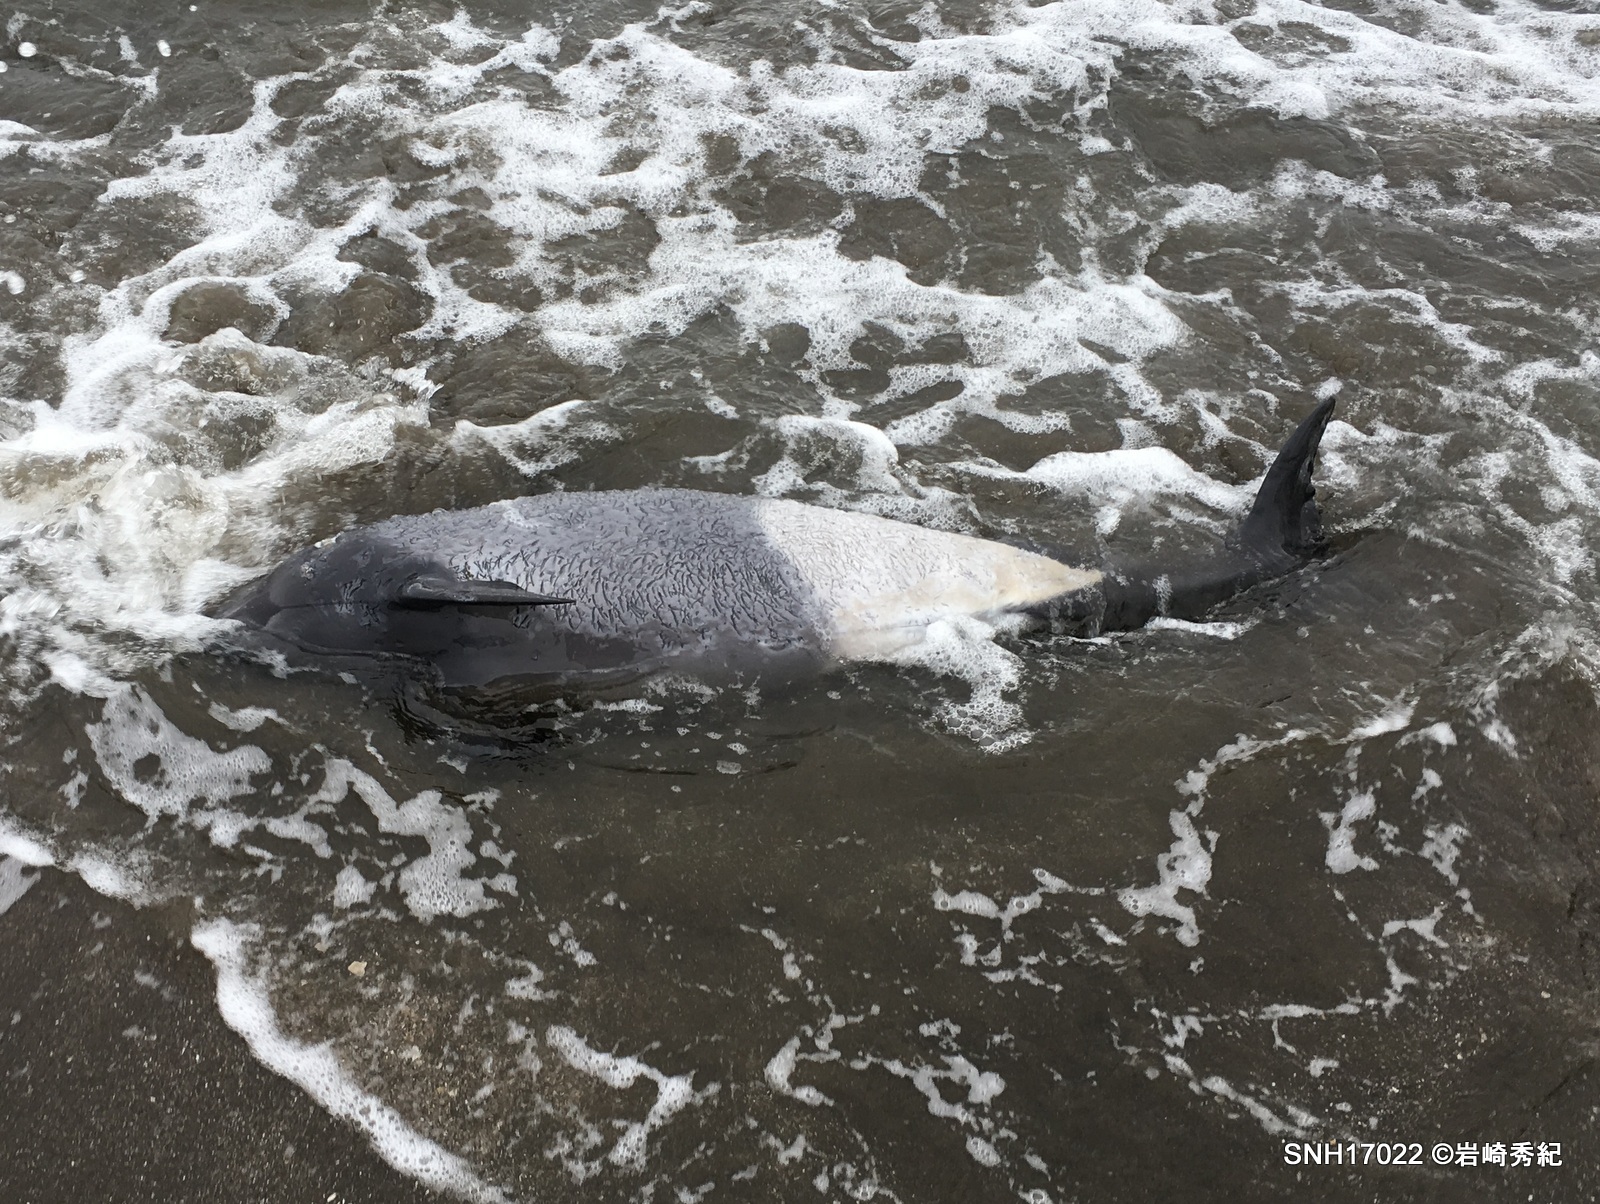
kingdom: Animalia
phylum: Chordata
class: Mammalia
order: Cetacea
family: Phocoenidae
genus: Phocoenoides
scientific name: Phocoenoides dalli
